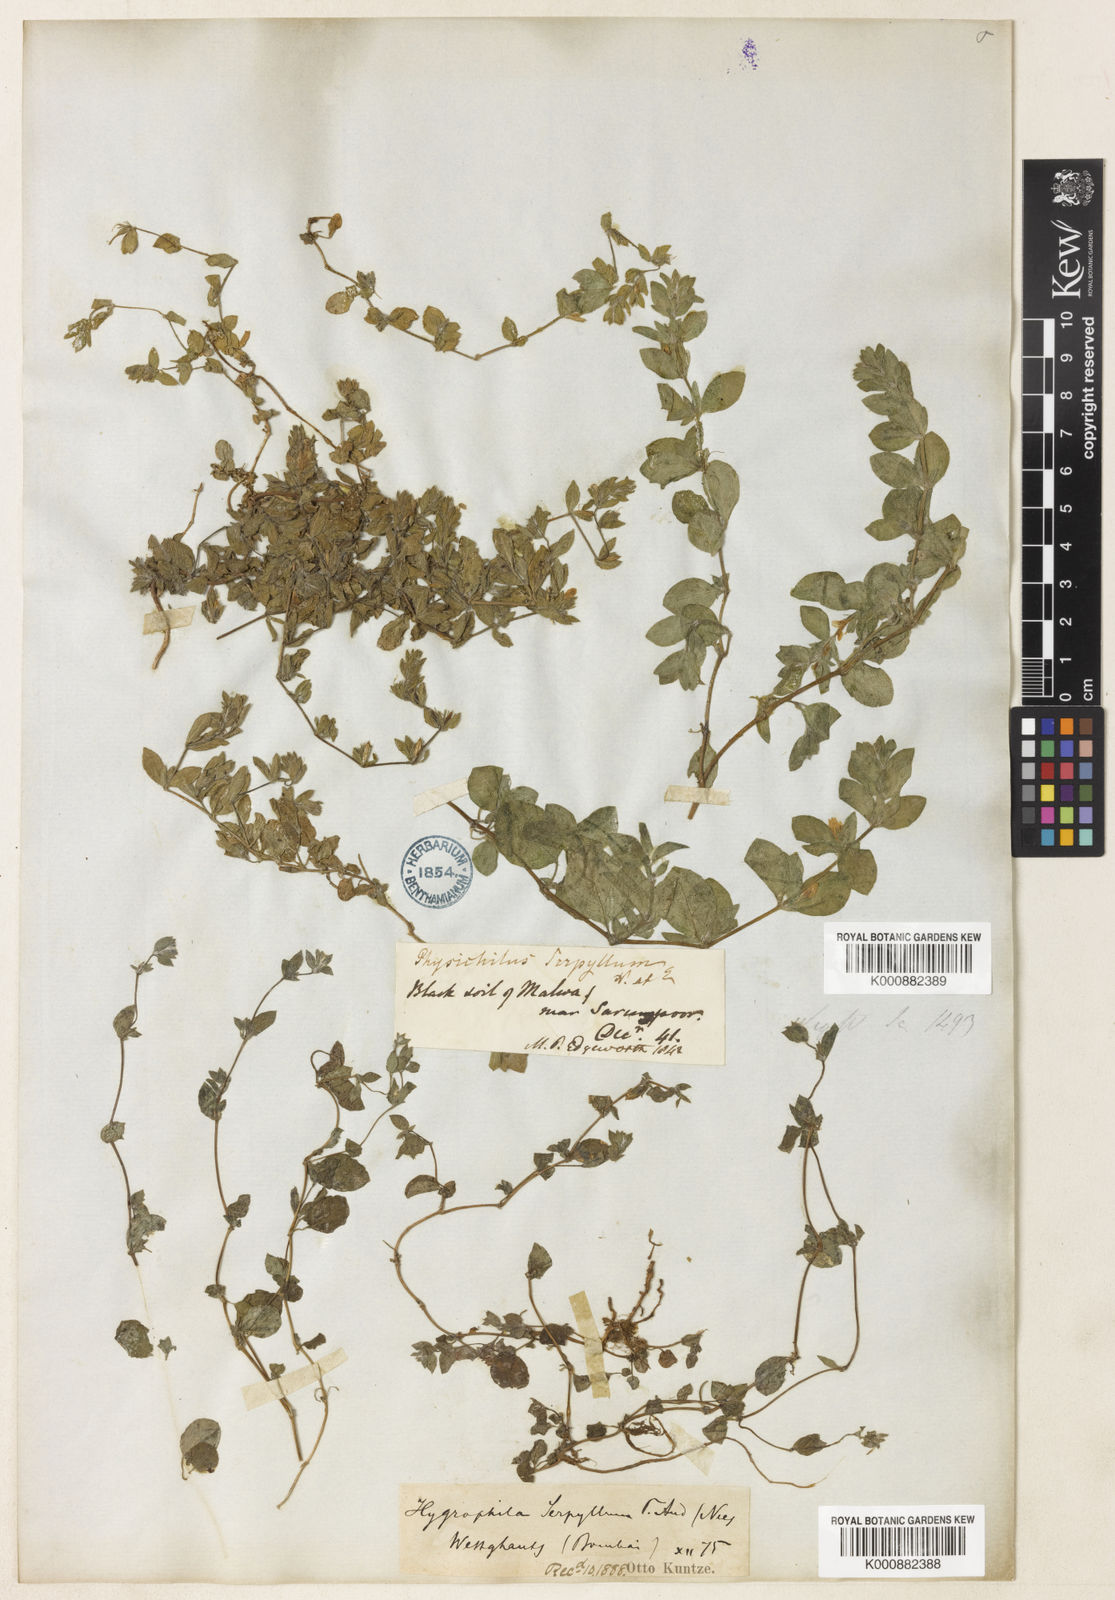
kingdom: Plantae
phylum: Tracheophyta
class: Magnoliopsida
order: Lamiales
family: Acanthaceae
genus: Hygrophila
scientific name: Hygrophila serpyllum
